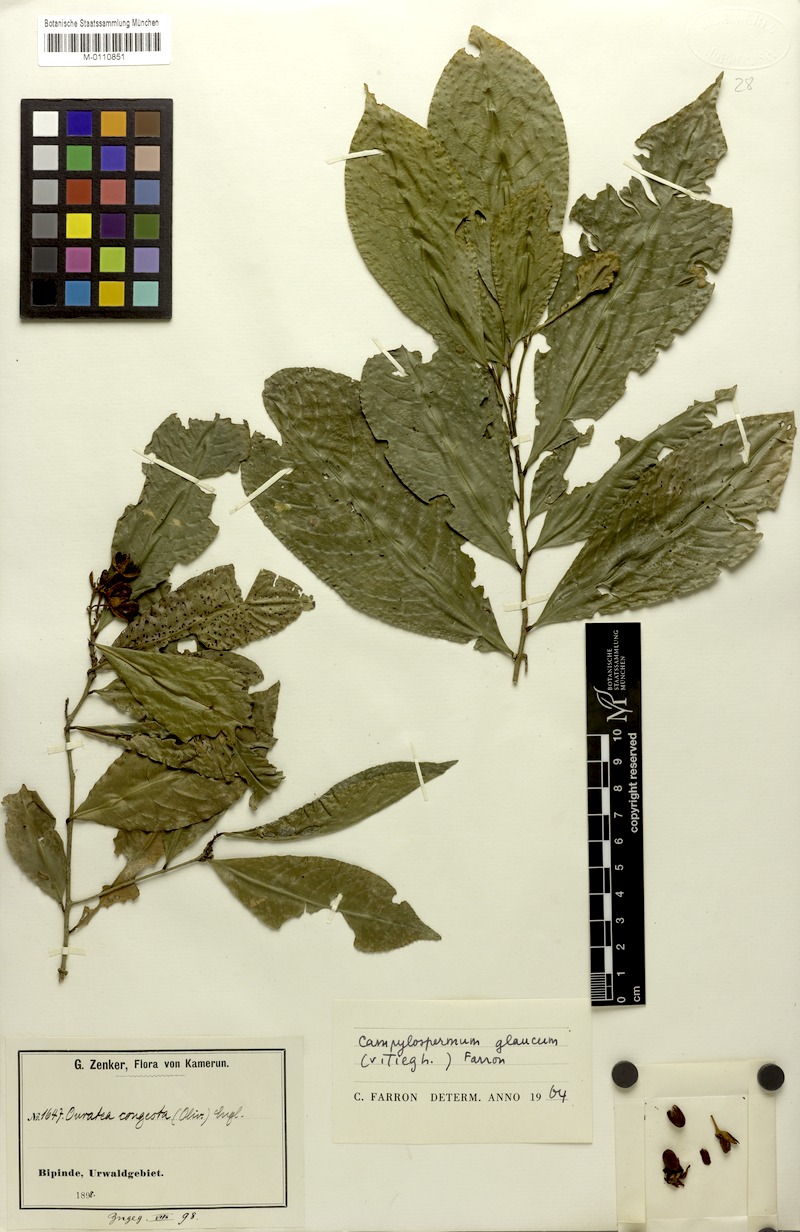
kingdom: Plantae
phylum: Tracheophyta
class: Magnoliopsida
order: Malpighiales
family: Ochnaceae
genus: Campylospermum
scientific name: Campylospermum glaucum
